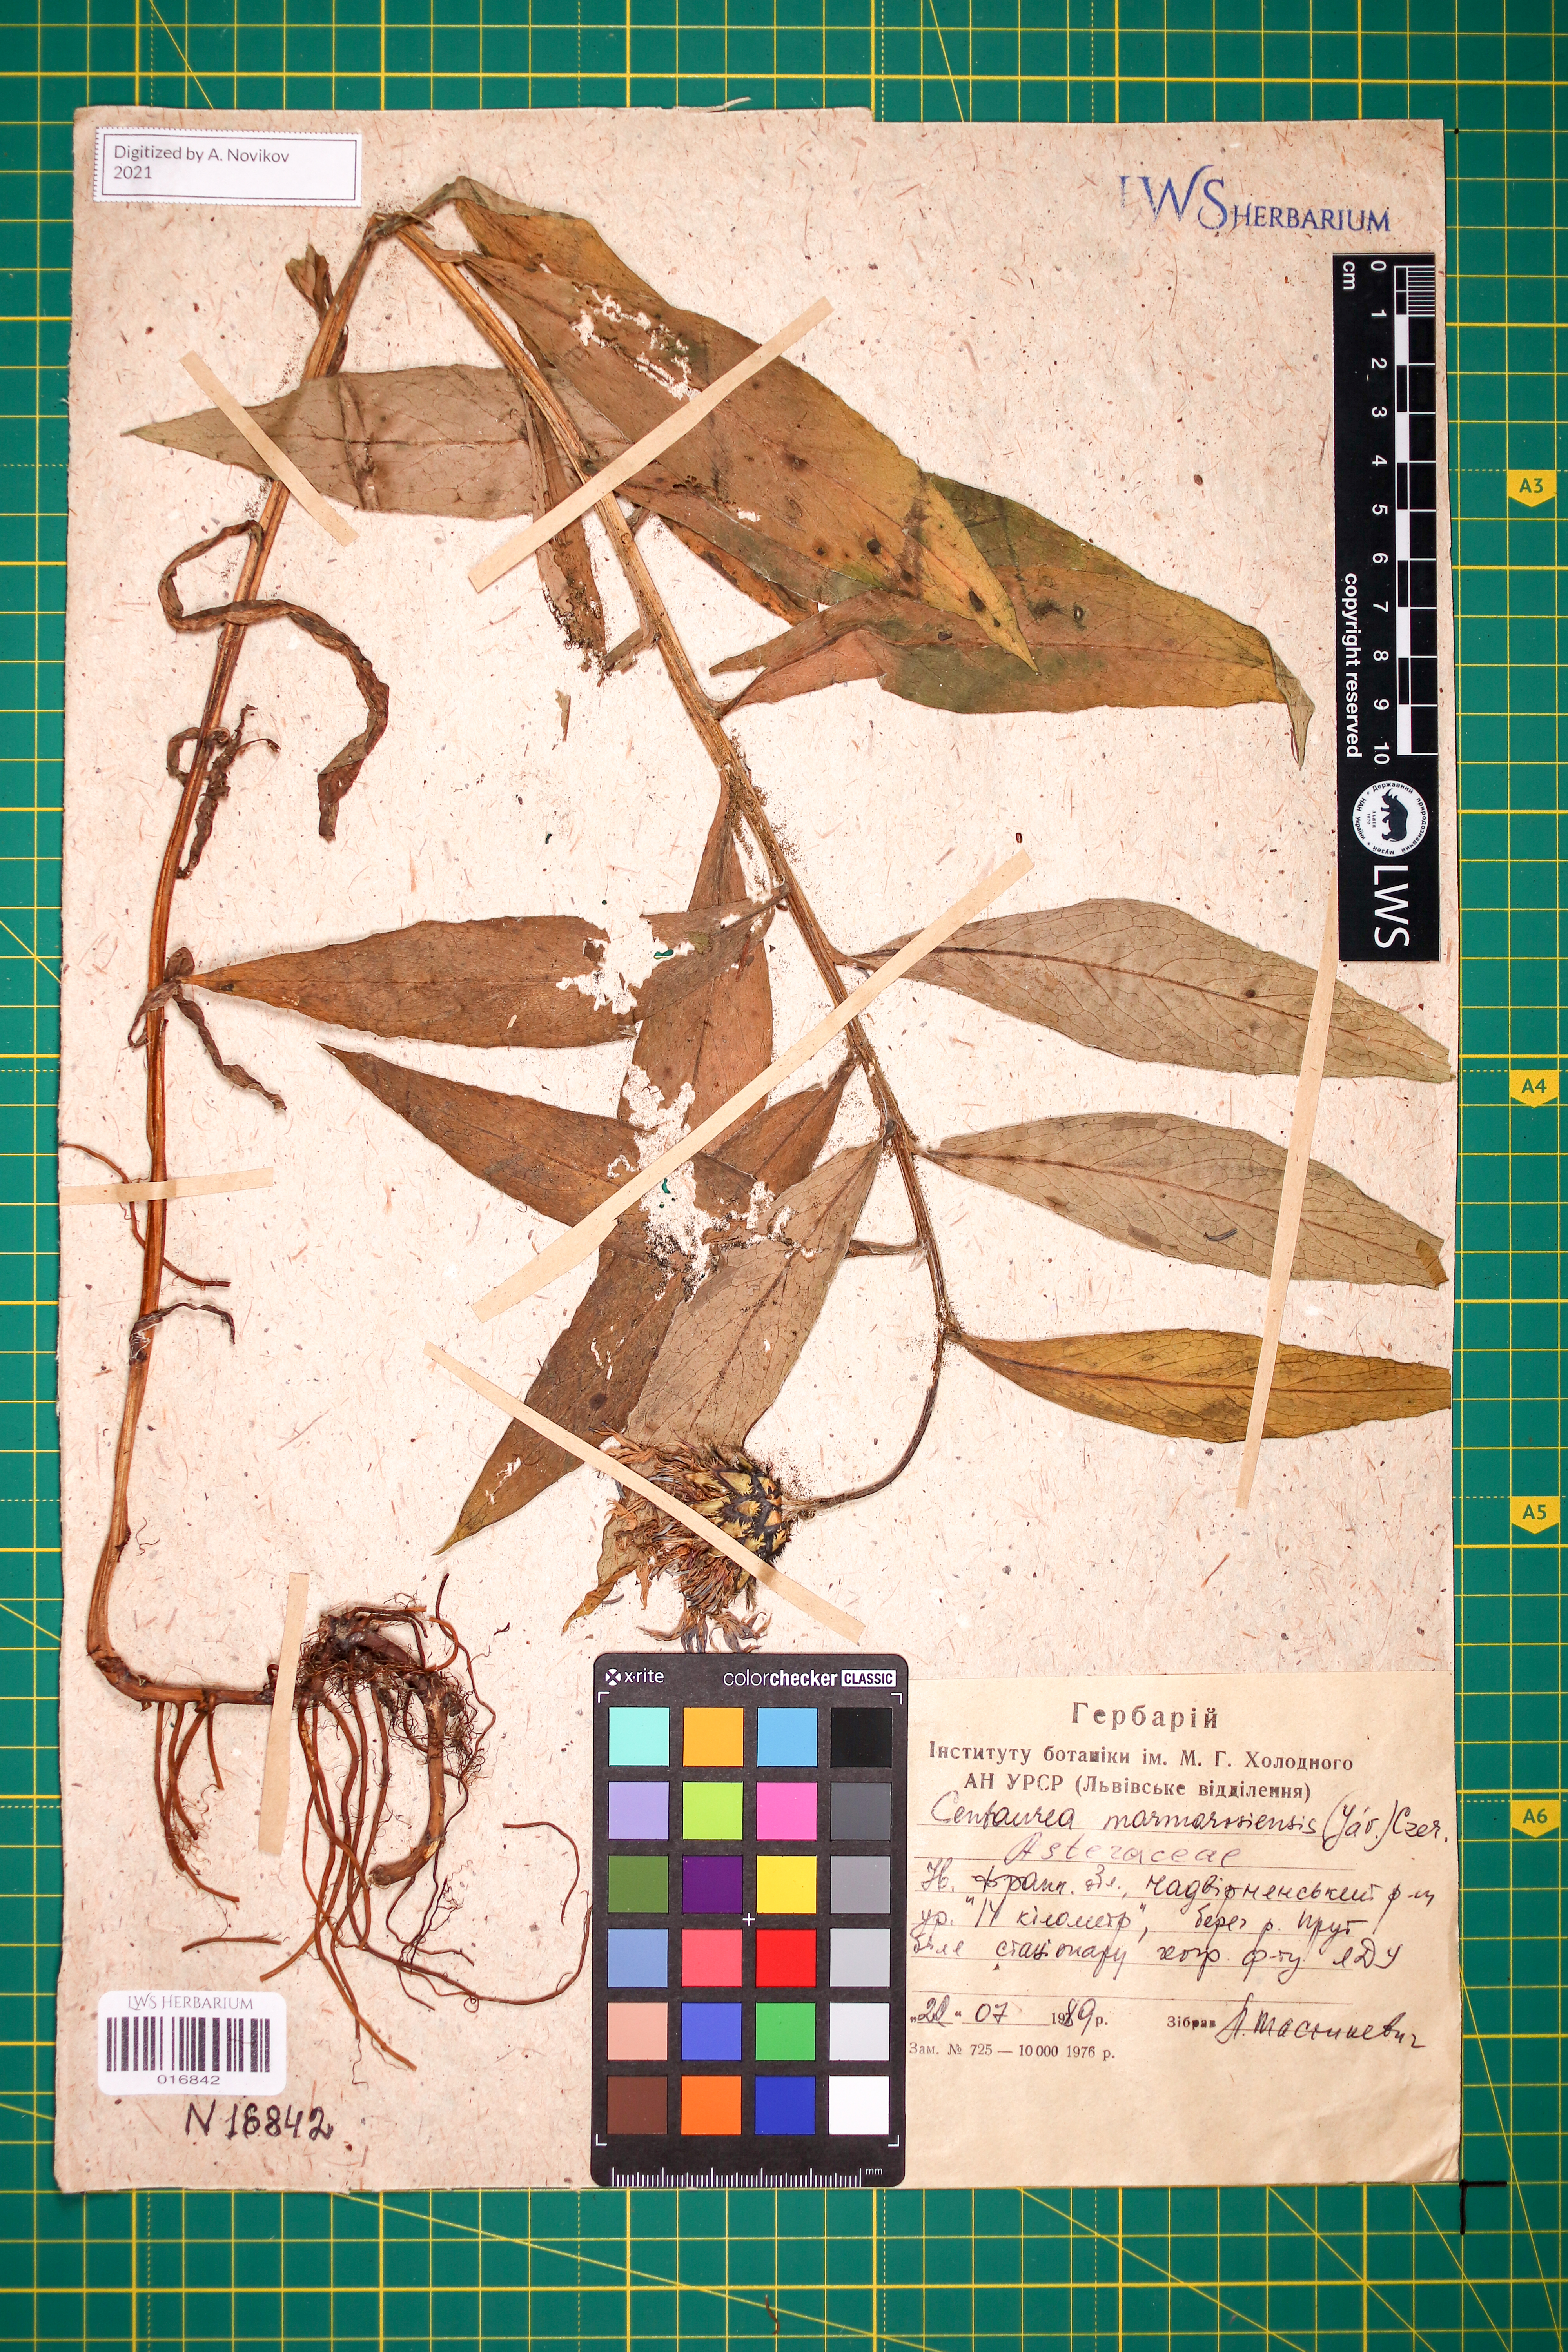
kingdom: Plantae
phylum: Tracheophyta
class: Magnoliopsida
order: Asterales
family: Asteraceae
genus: Centaurea
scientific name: Centaurea maramarosiensis
